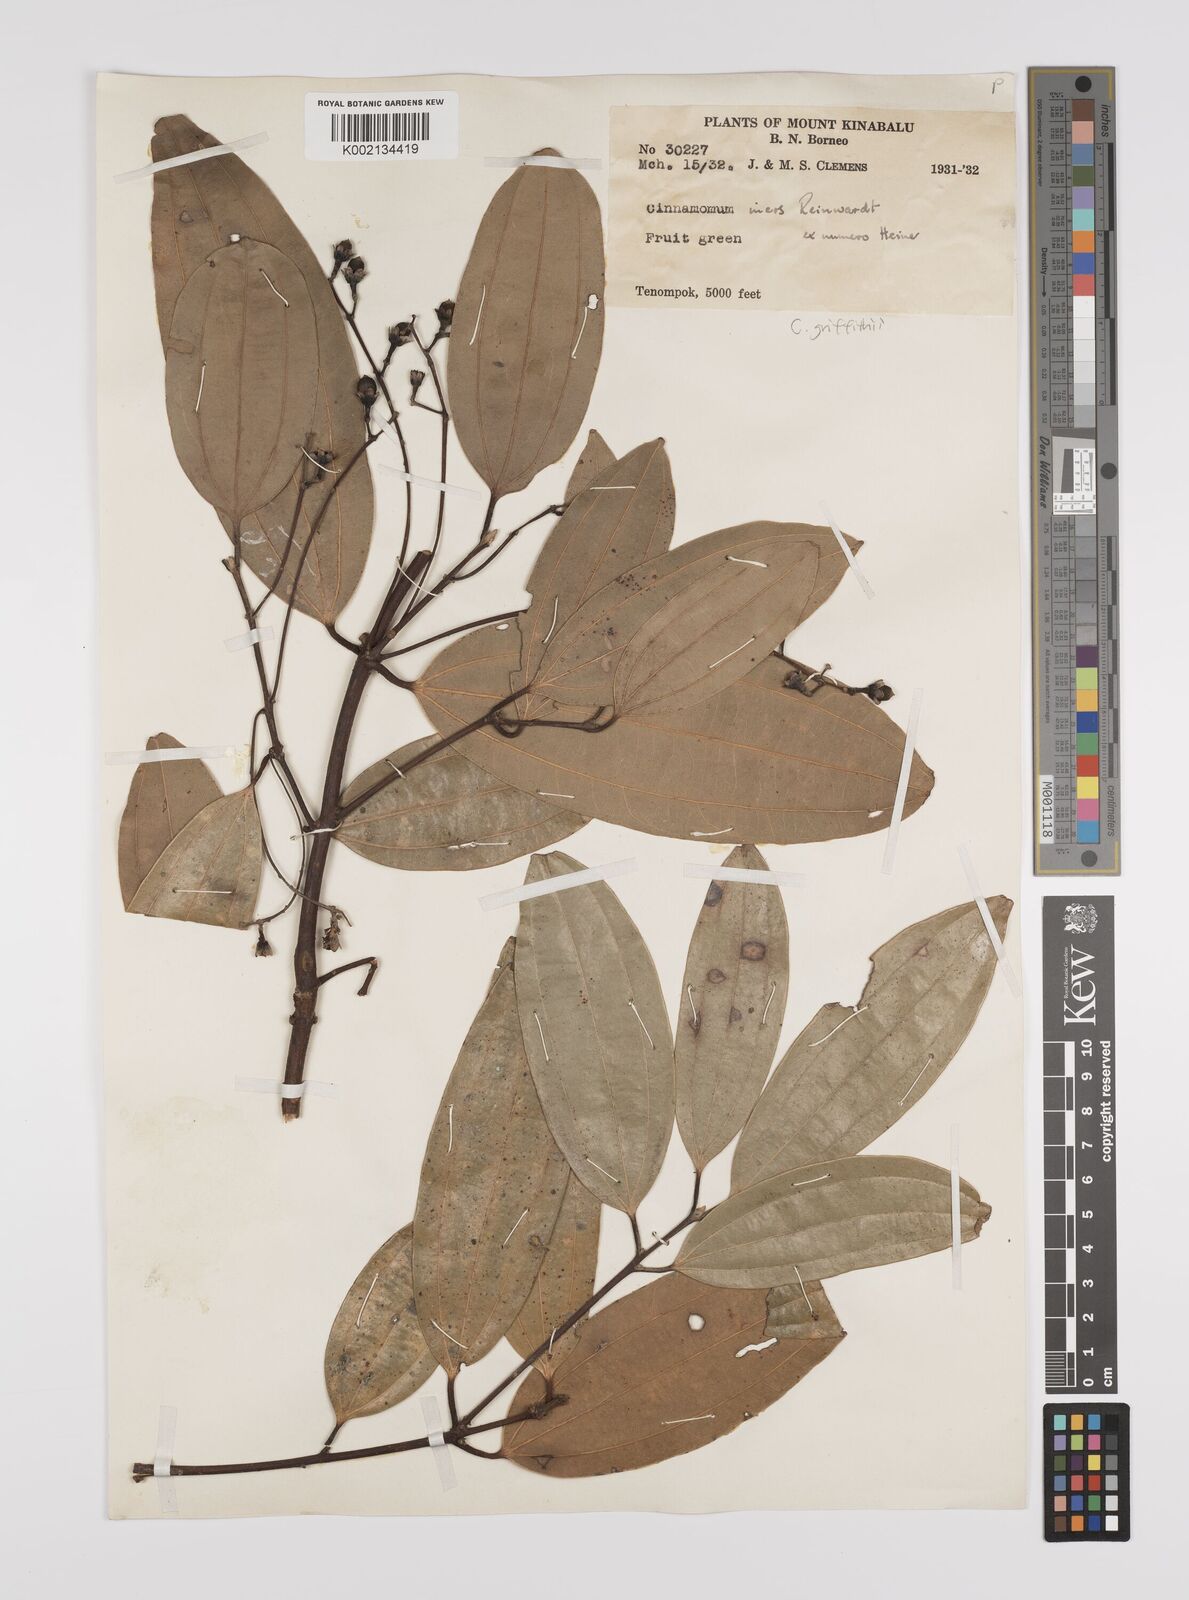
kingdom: Plantae
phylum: Tracheophyta
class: Magnoliopsida
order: Laurales
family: Lauraceae
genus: Cinnamomum
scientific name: Cinnamomum iners
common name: Wild cinnamon
